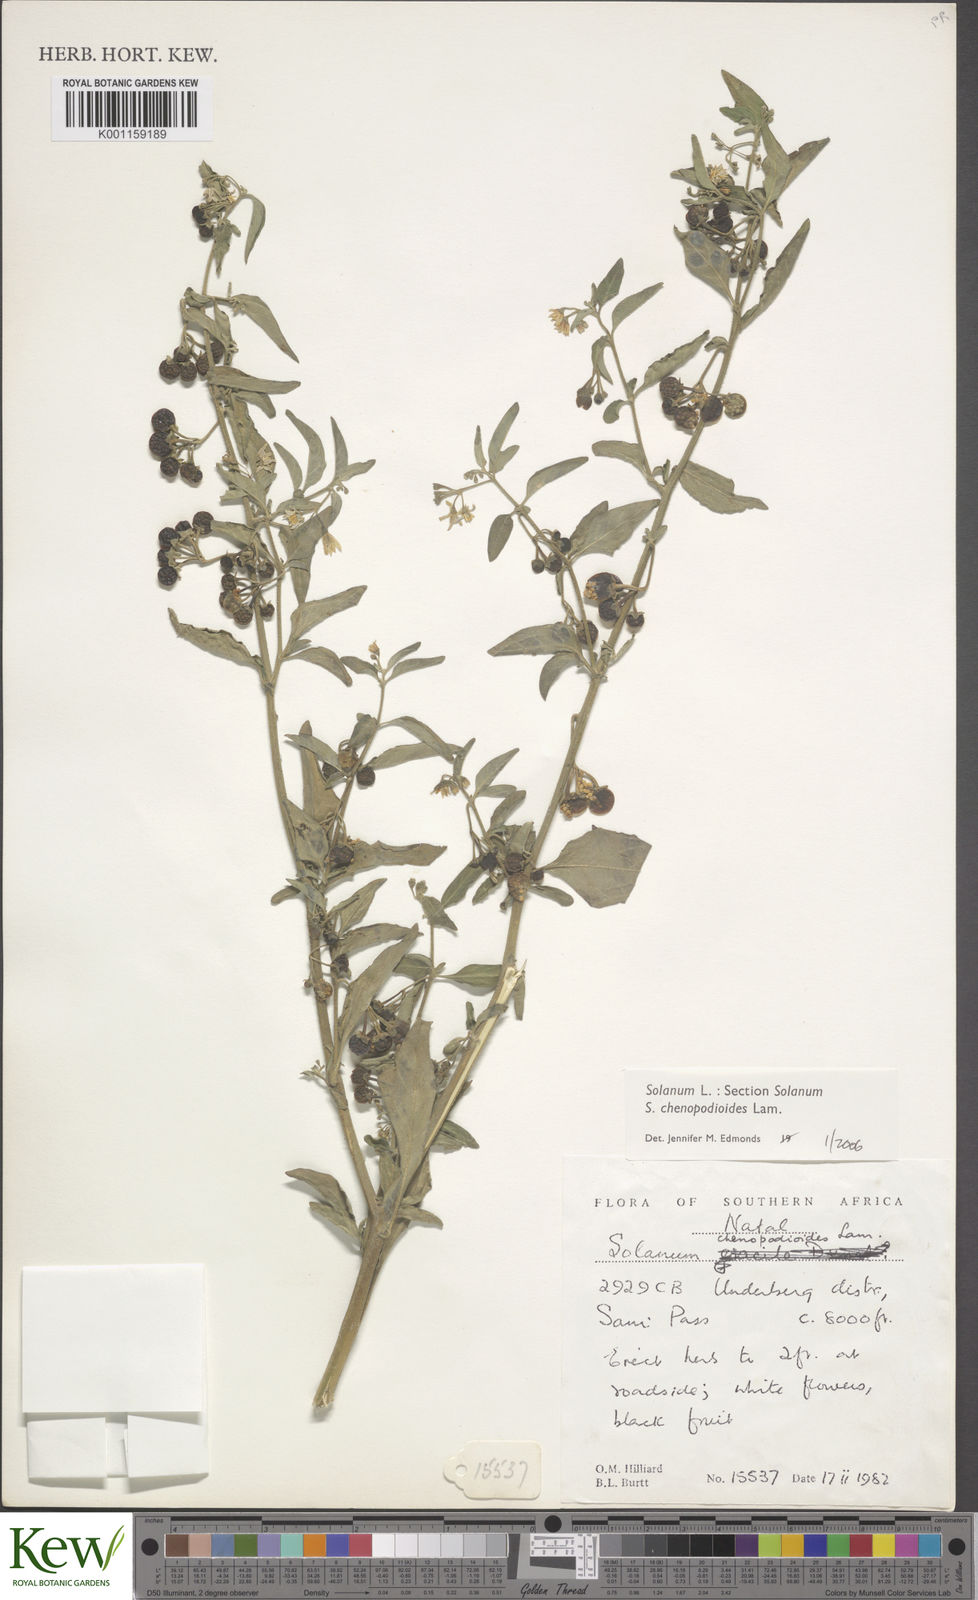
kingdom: Plantae
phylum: Tracheophyta
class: Magnoliopsida
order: Solanales
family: Solanaceae
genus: Solanum
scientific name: Solanum chenopodioides
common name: Tall nightshade
